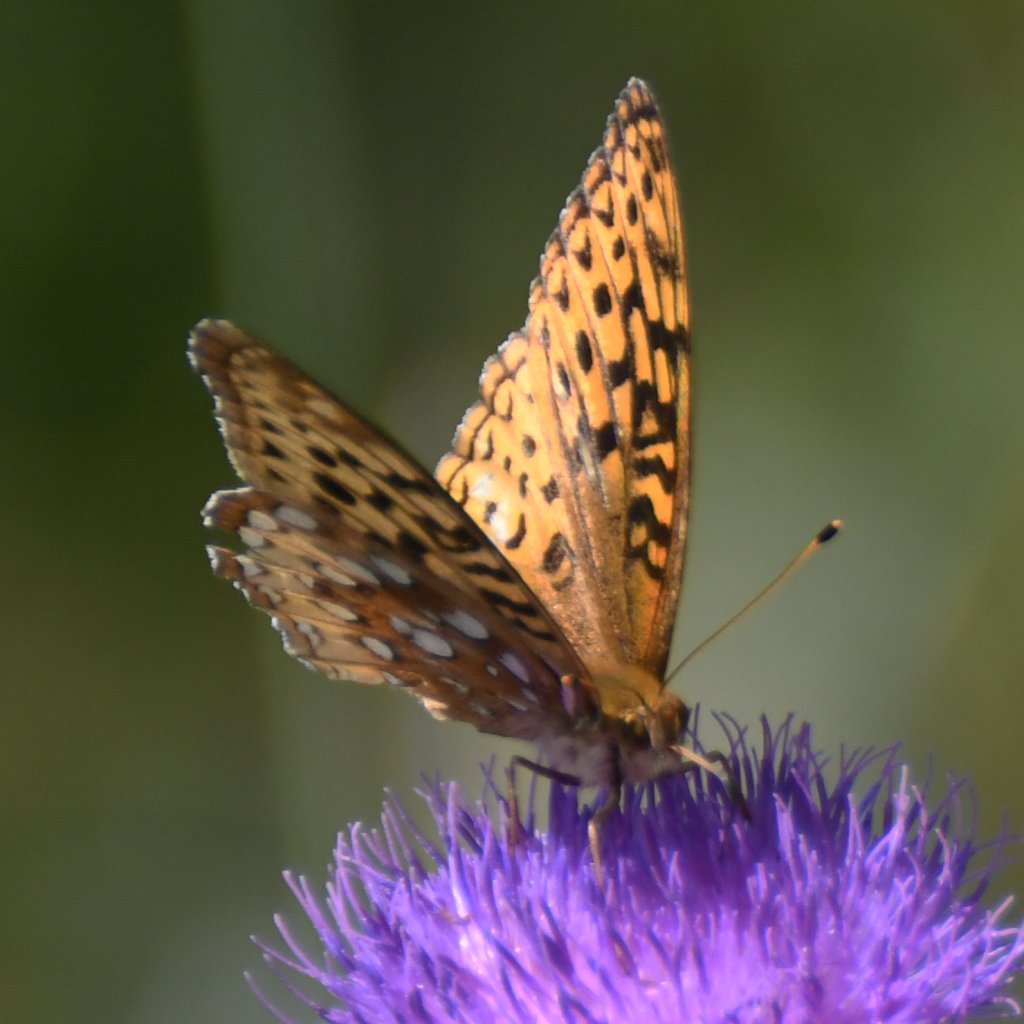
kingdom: Animalia
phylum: Arthropoda
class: Insecta
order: Lepidoptera
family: Nymphalidae
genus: Speyeria
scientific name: Speyeria cybele
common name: Great Spangled Fritillary
